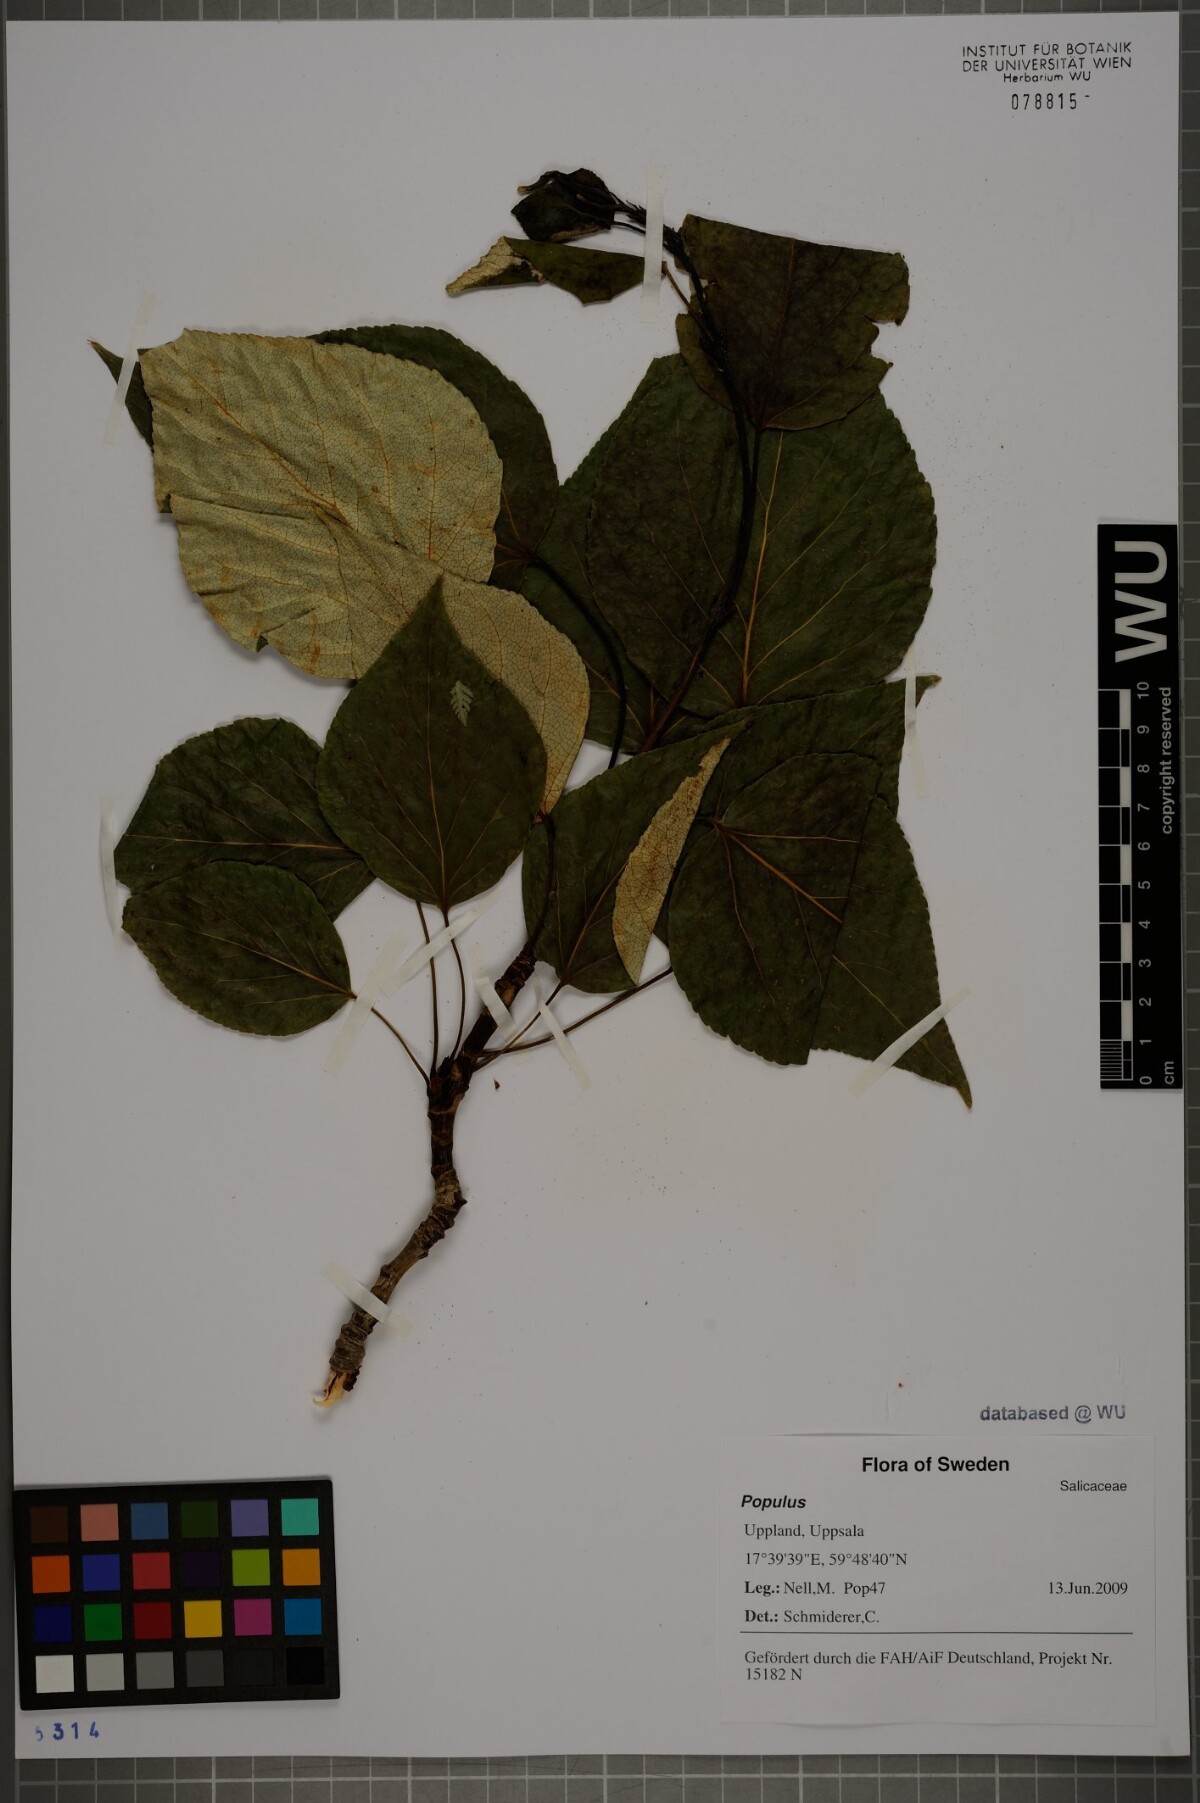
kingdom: Plantae
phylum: Tracheophyta
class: Magnoliopsida
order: Malpighiales
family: Salicaceae
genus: Populus
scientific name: Populus
